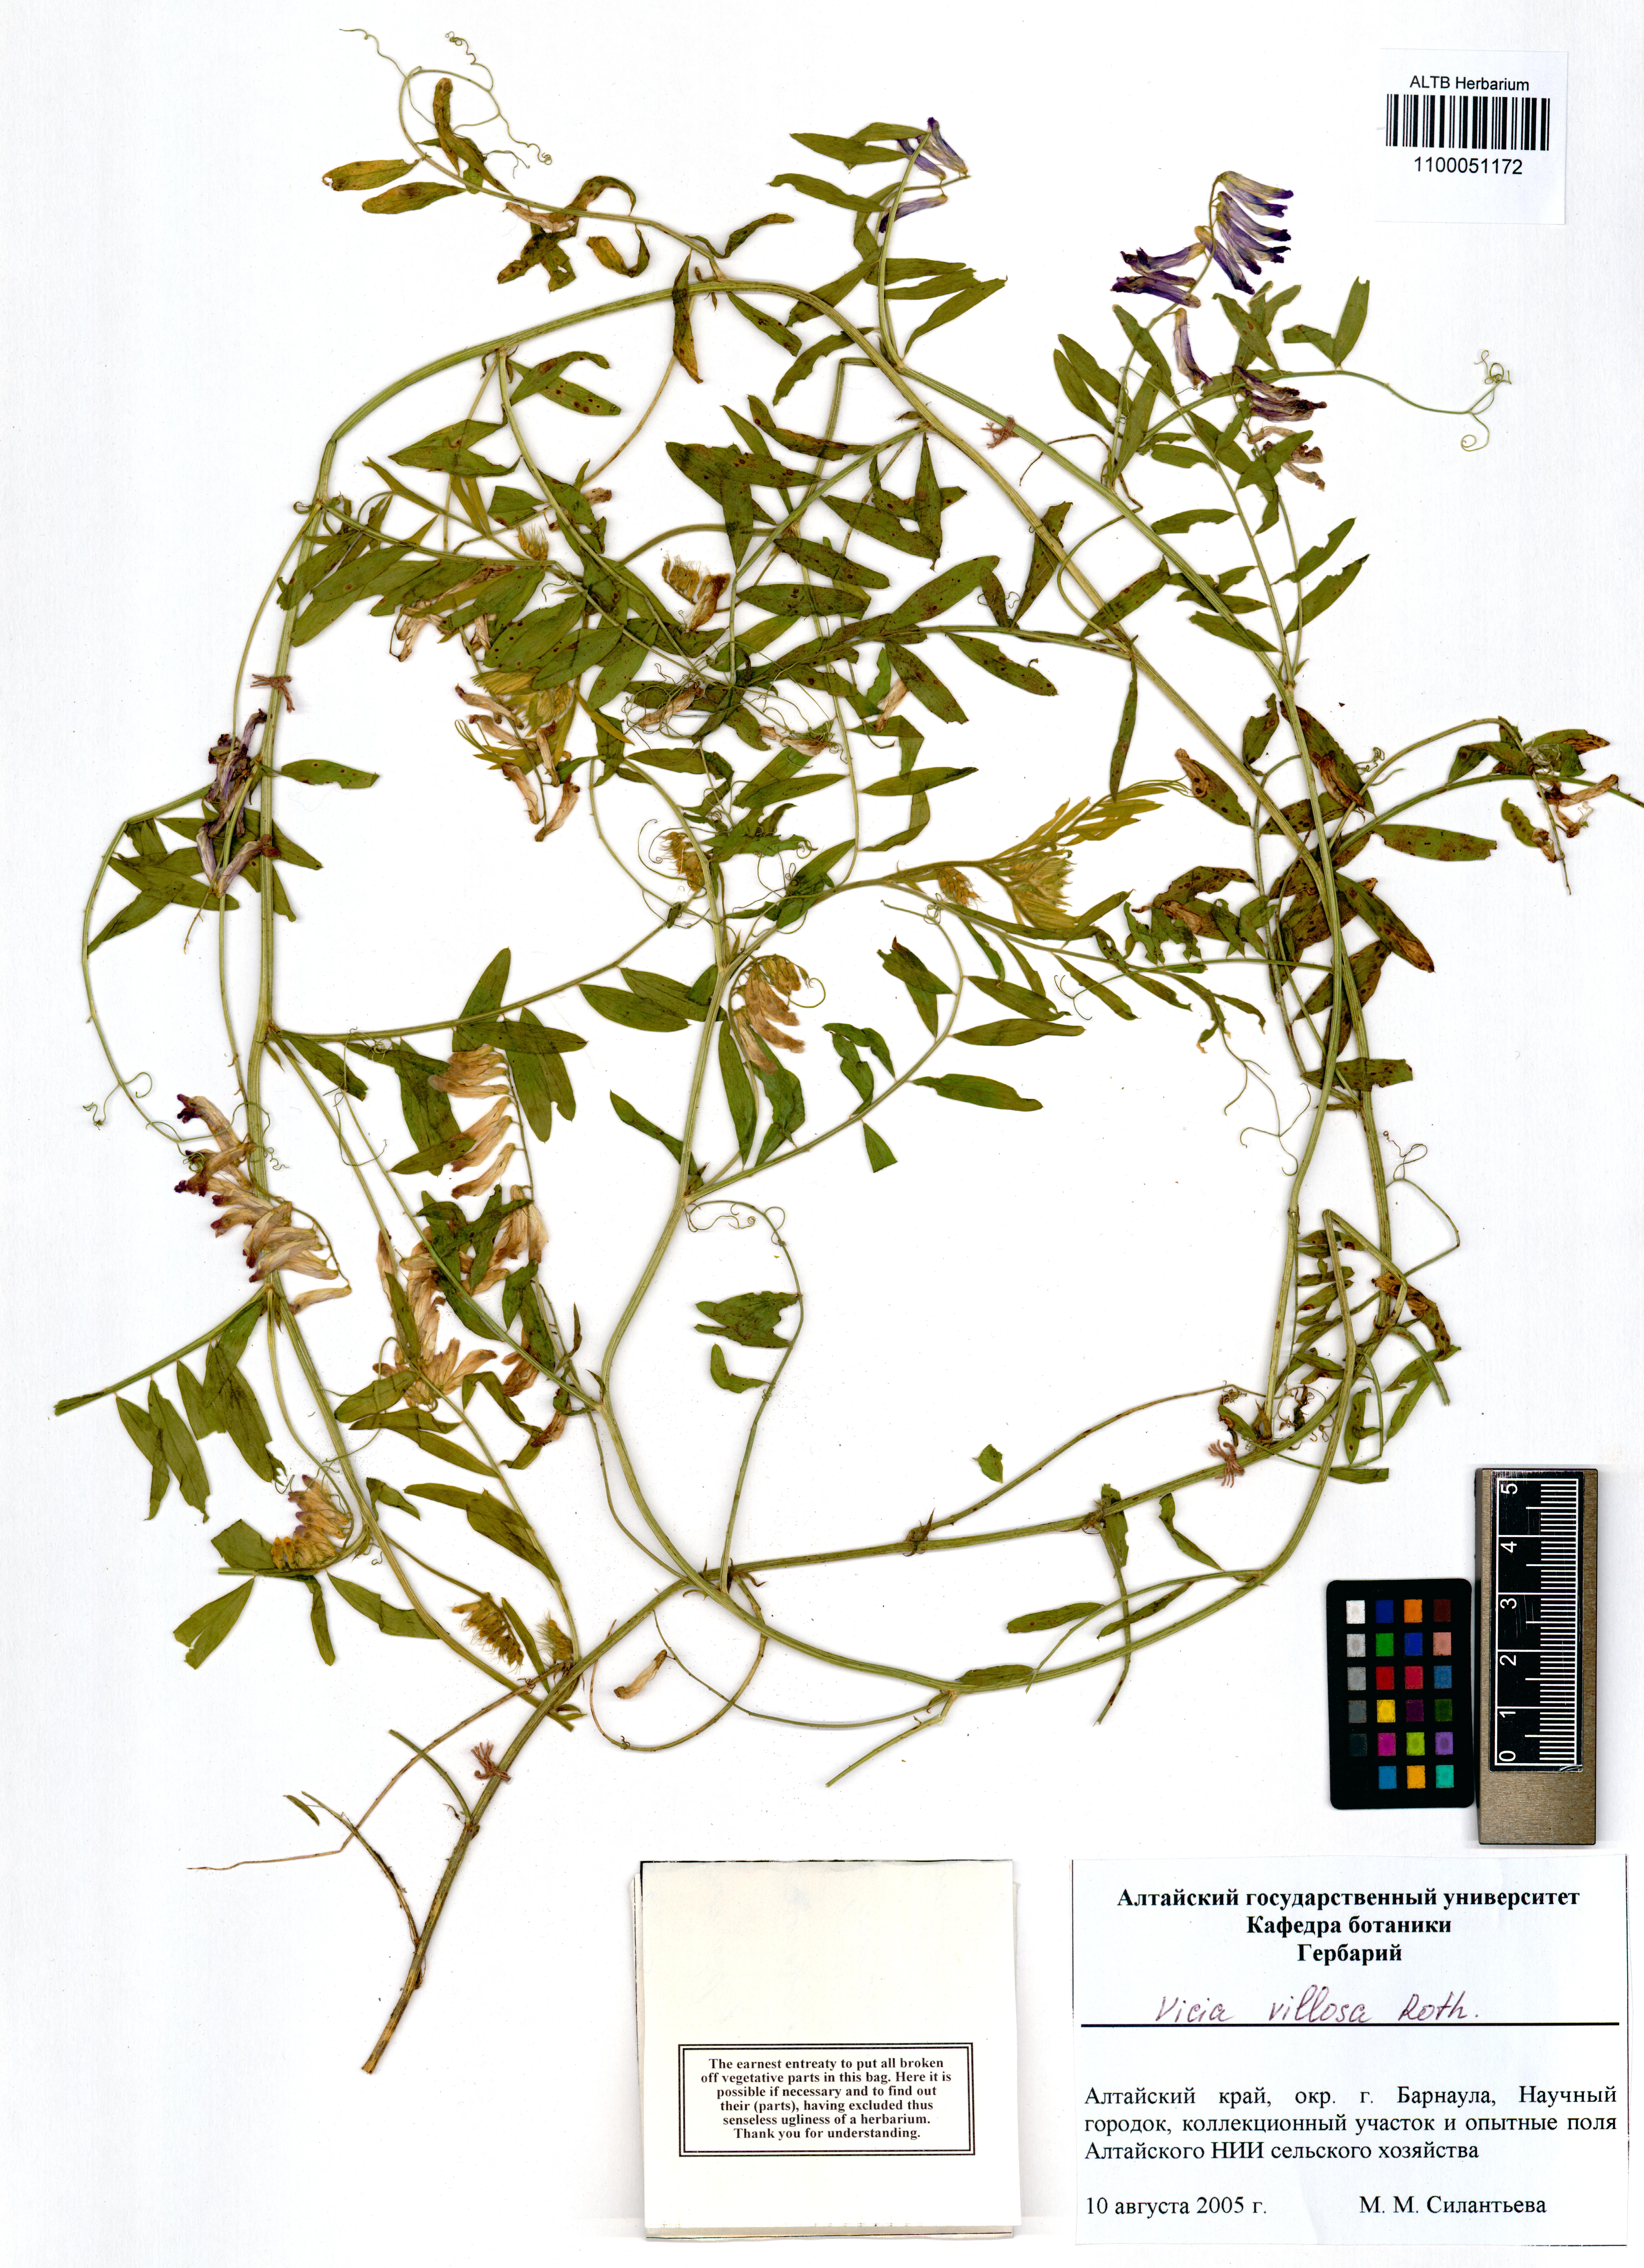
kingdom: Plantae
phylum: Tracheophyta
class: Magnoliopsida
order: Fabales
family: Fabaceae
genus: Vicia
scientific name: Vicia venosa
